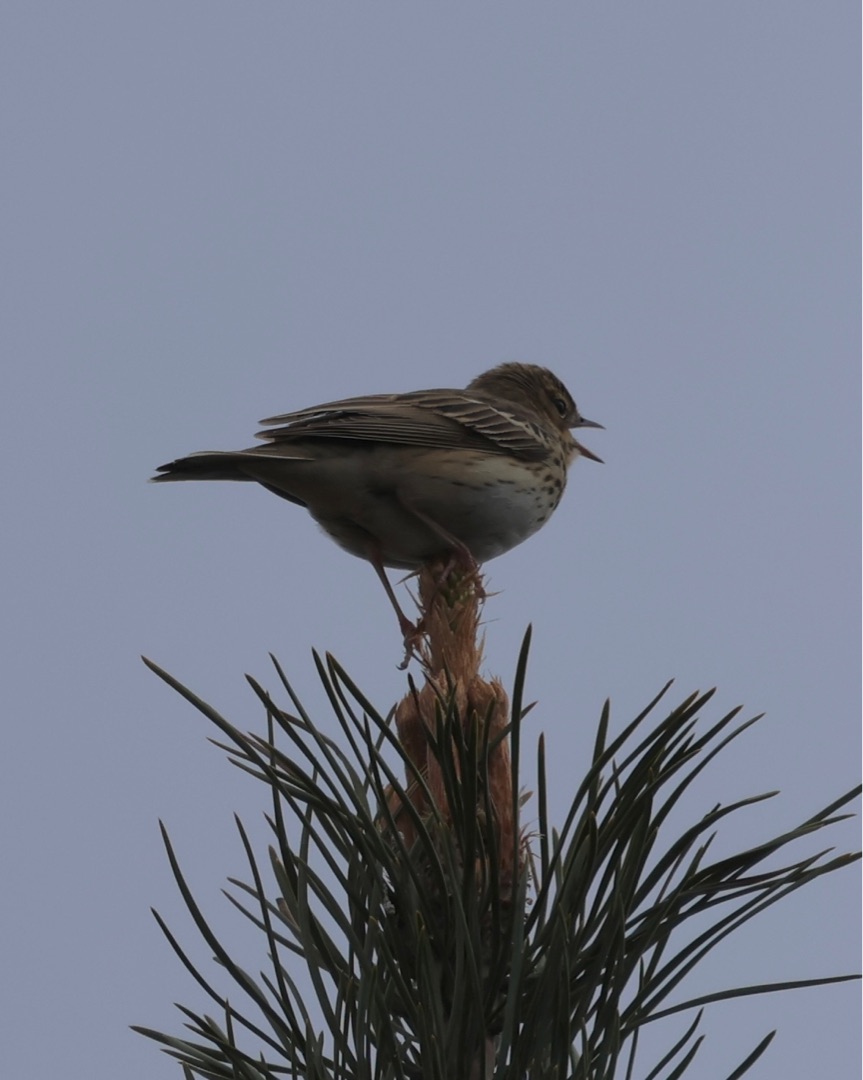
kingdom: Animalia
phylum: Chordata
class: Aves
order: Passeriformes
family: Motacillidae
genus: Anthus
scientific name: Anthus trivialis
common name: Skovpiber
